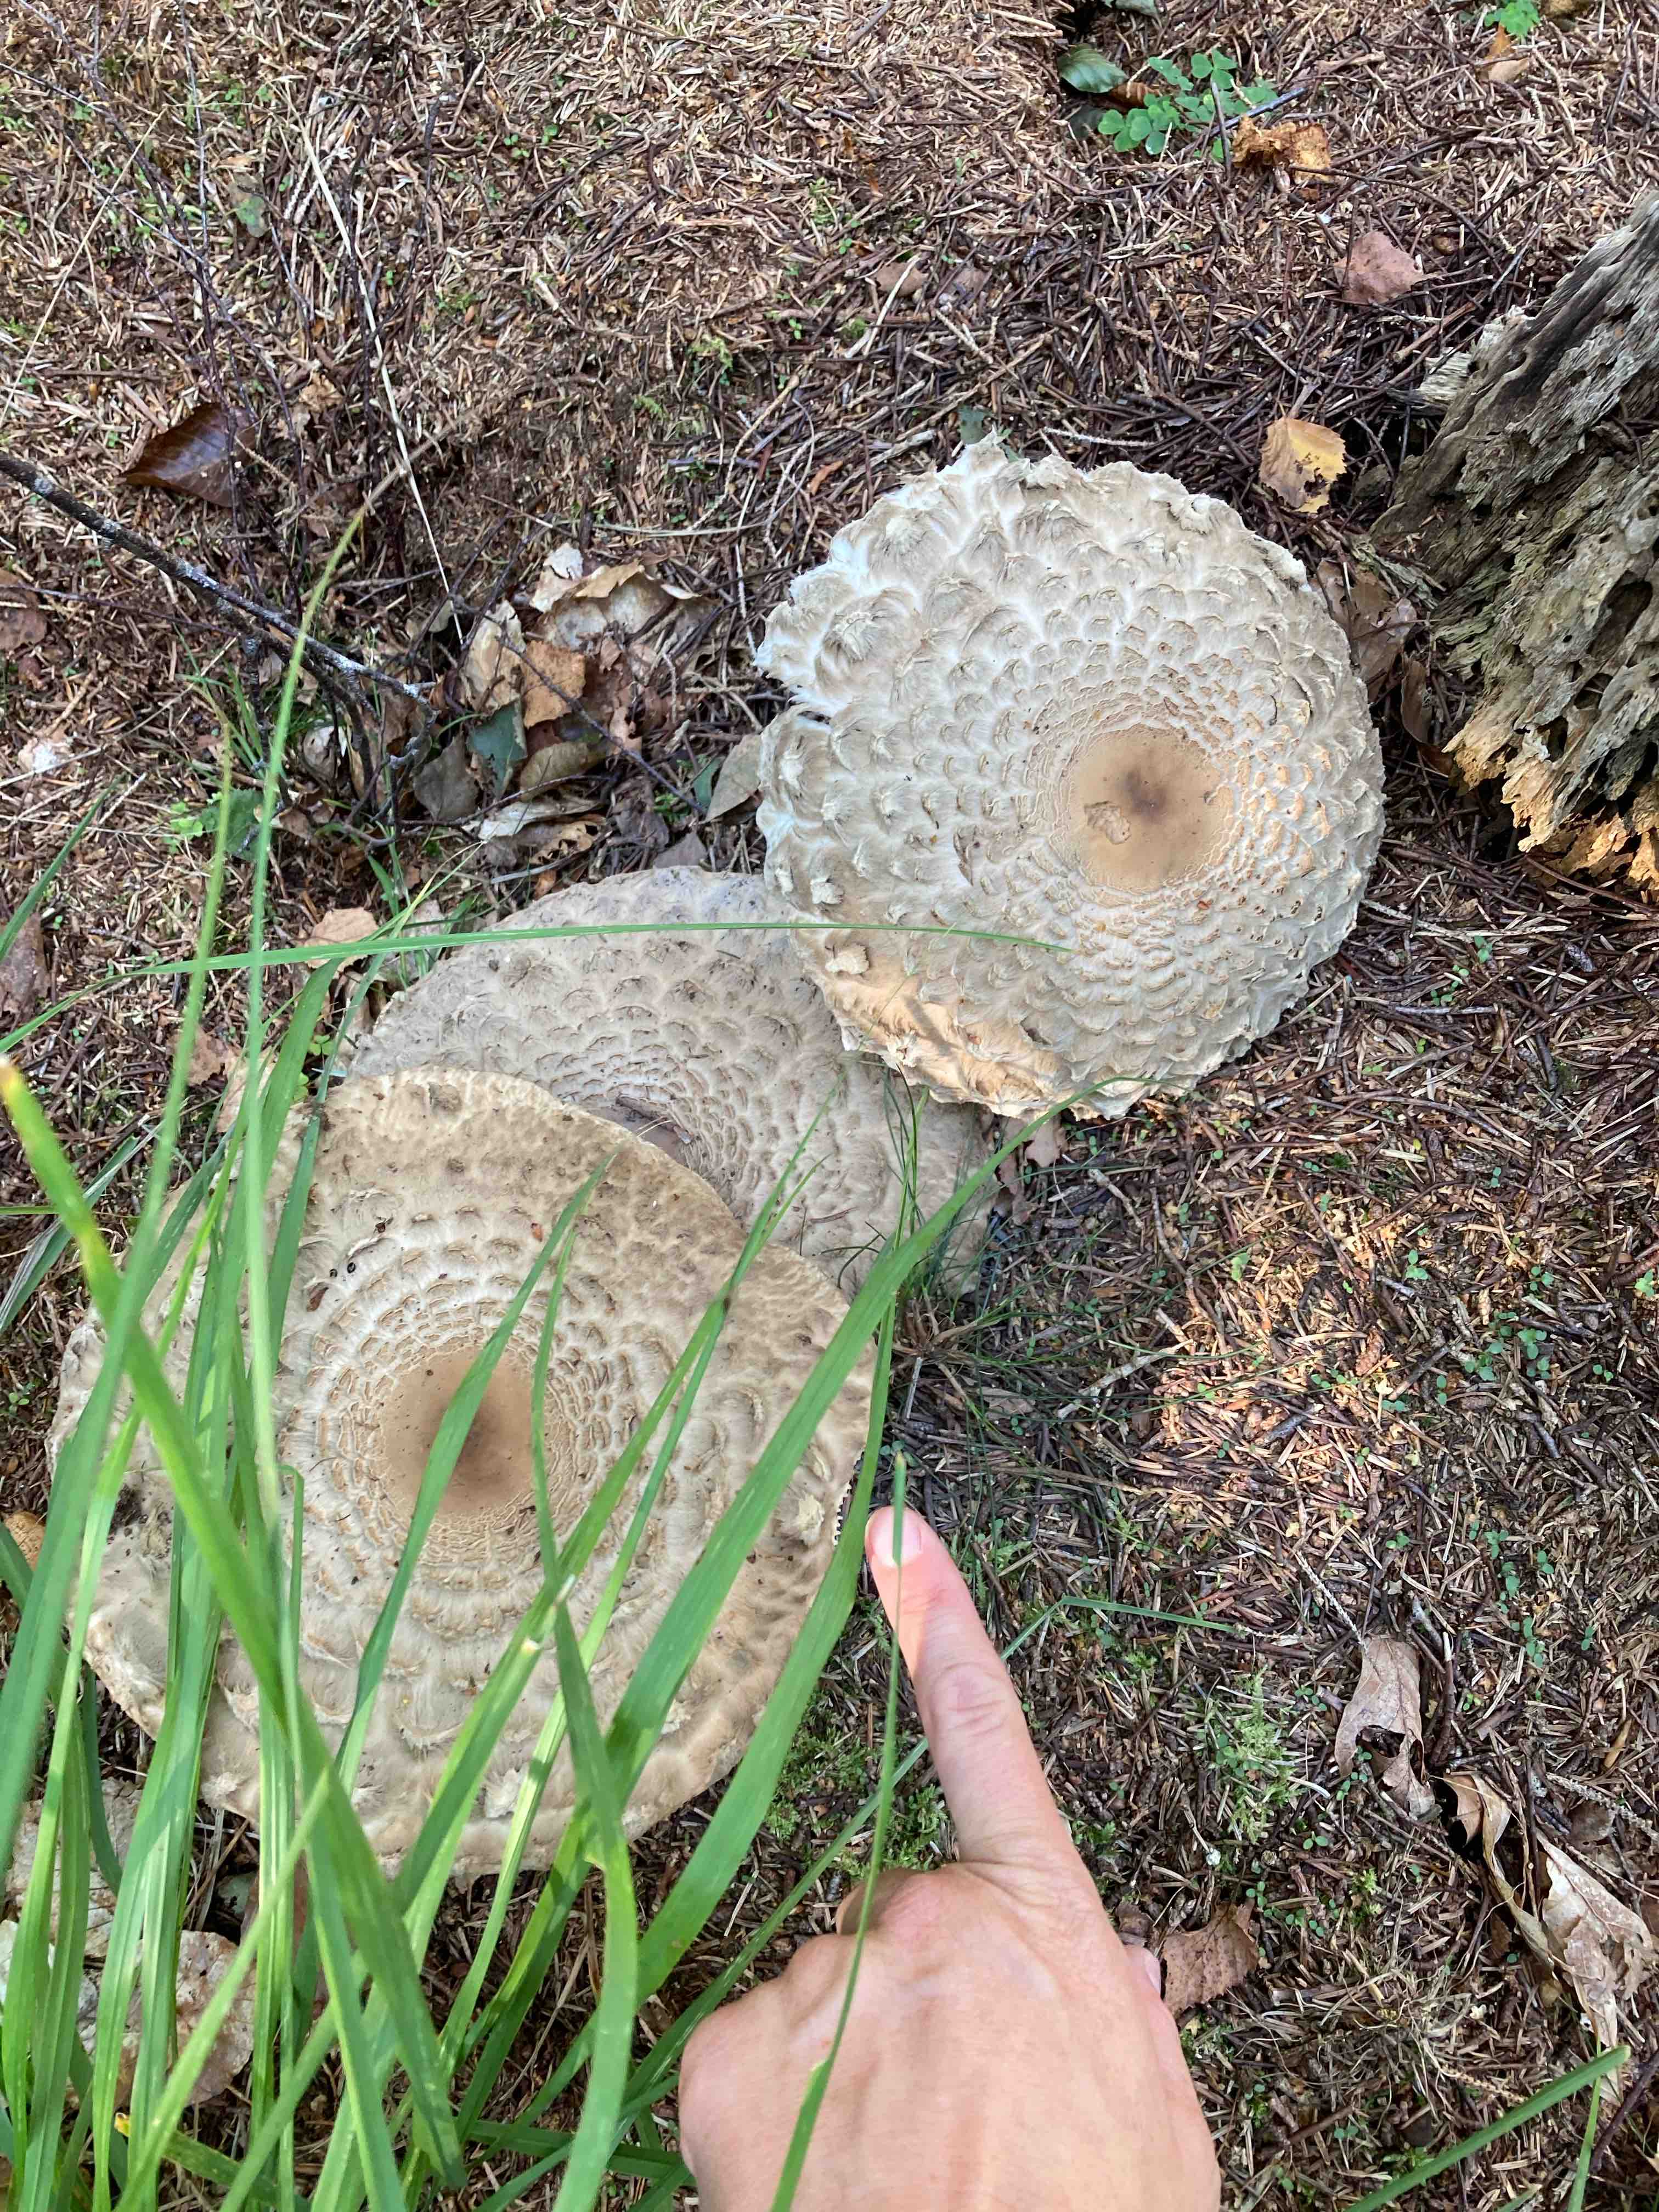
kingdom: Fungi
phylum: Basidiomycota
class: Agaricomycetes
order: Agaricales
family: Agaricaceae
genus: Chlorophyllum
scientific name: Chlorophyllum olivieri
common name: almindelig rabarberhat
